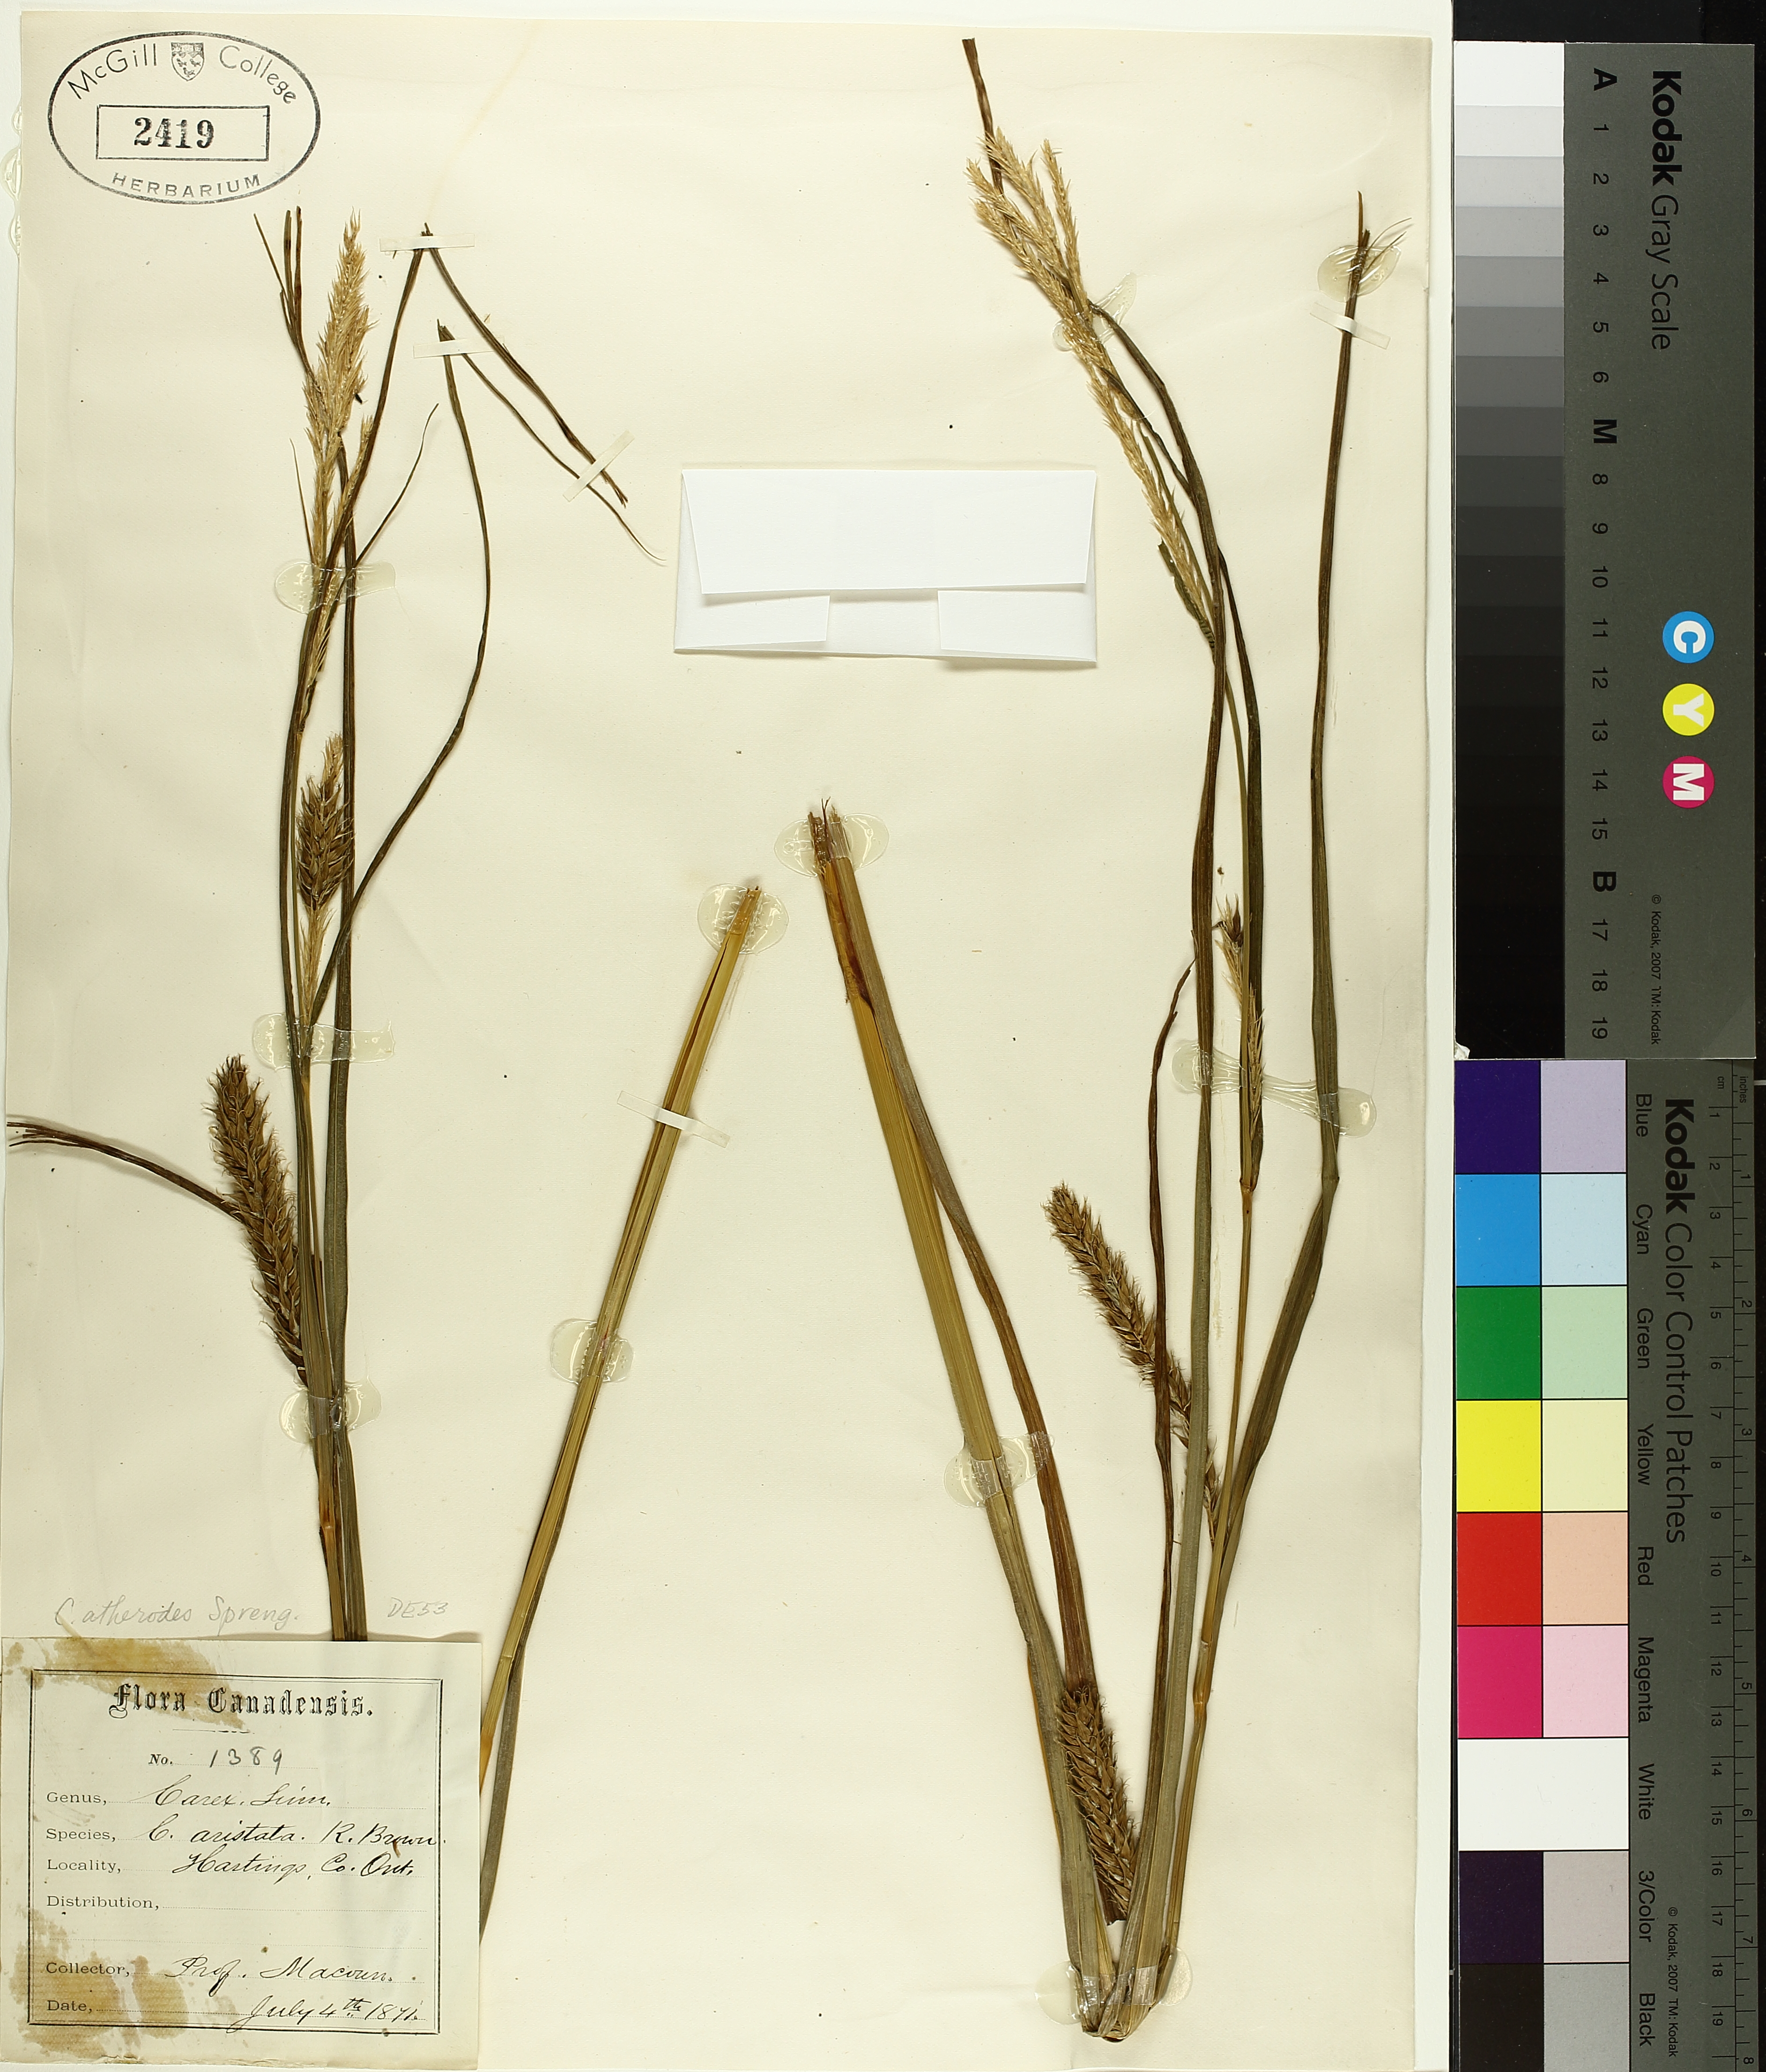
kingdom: Plantae
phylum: Tracheophyta
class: Liliopsida
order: Poales
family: Cyperaceae
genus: Carex
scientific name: Carex atherodes
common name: Wheat sedge
